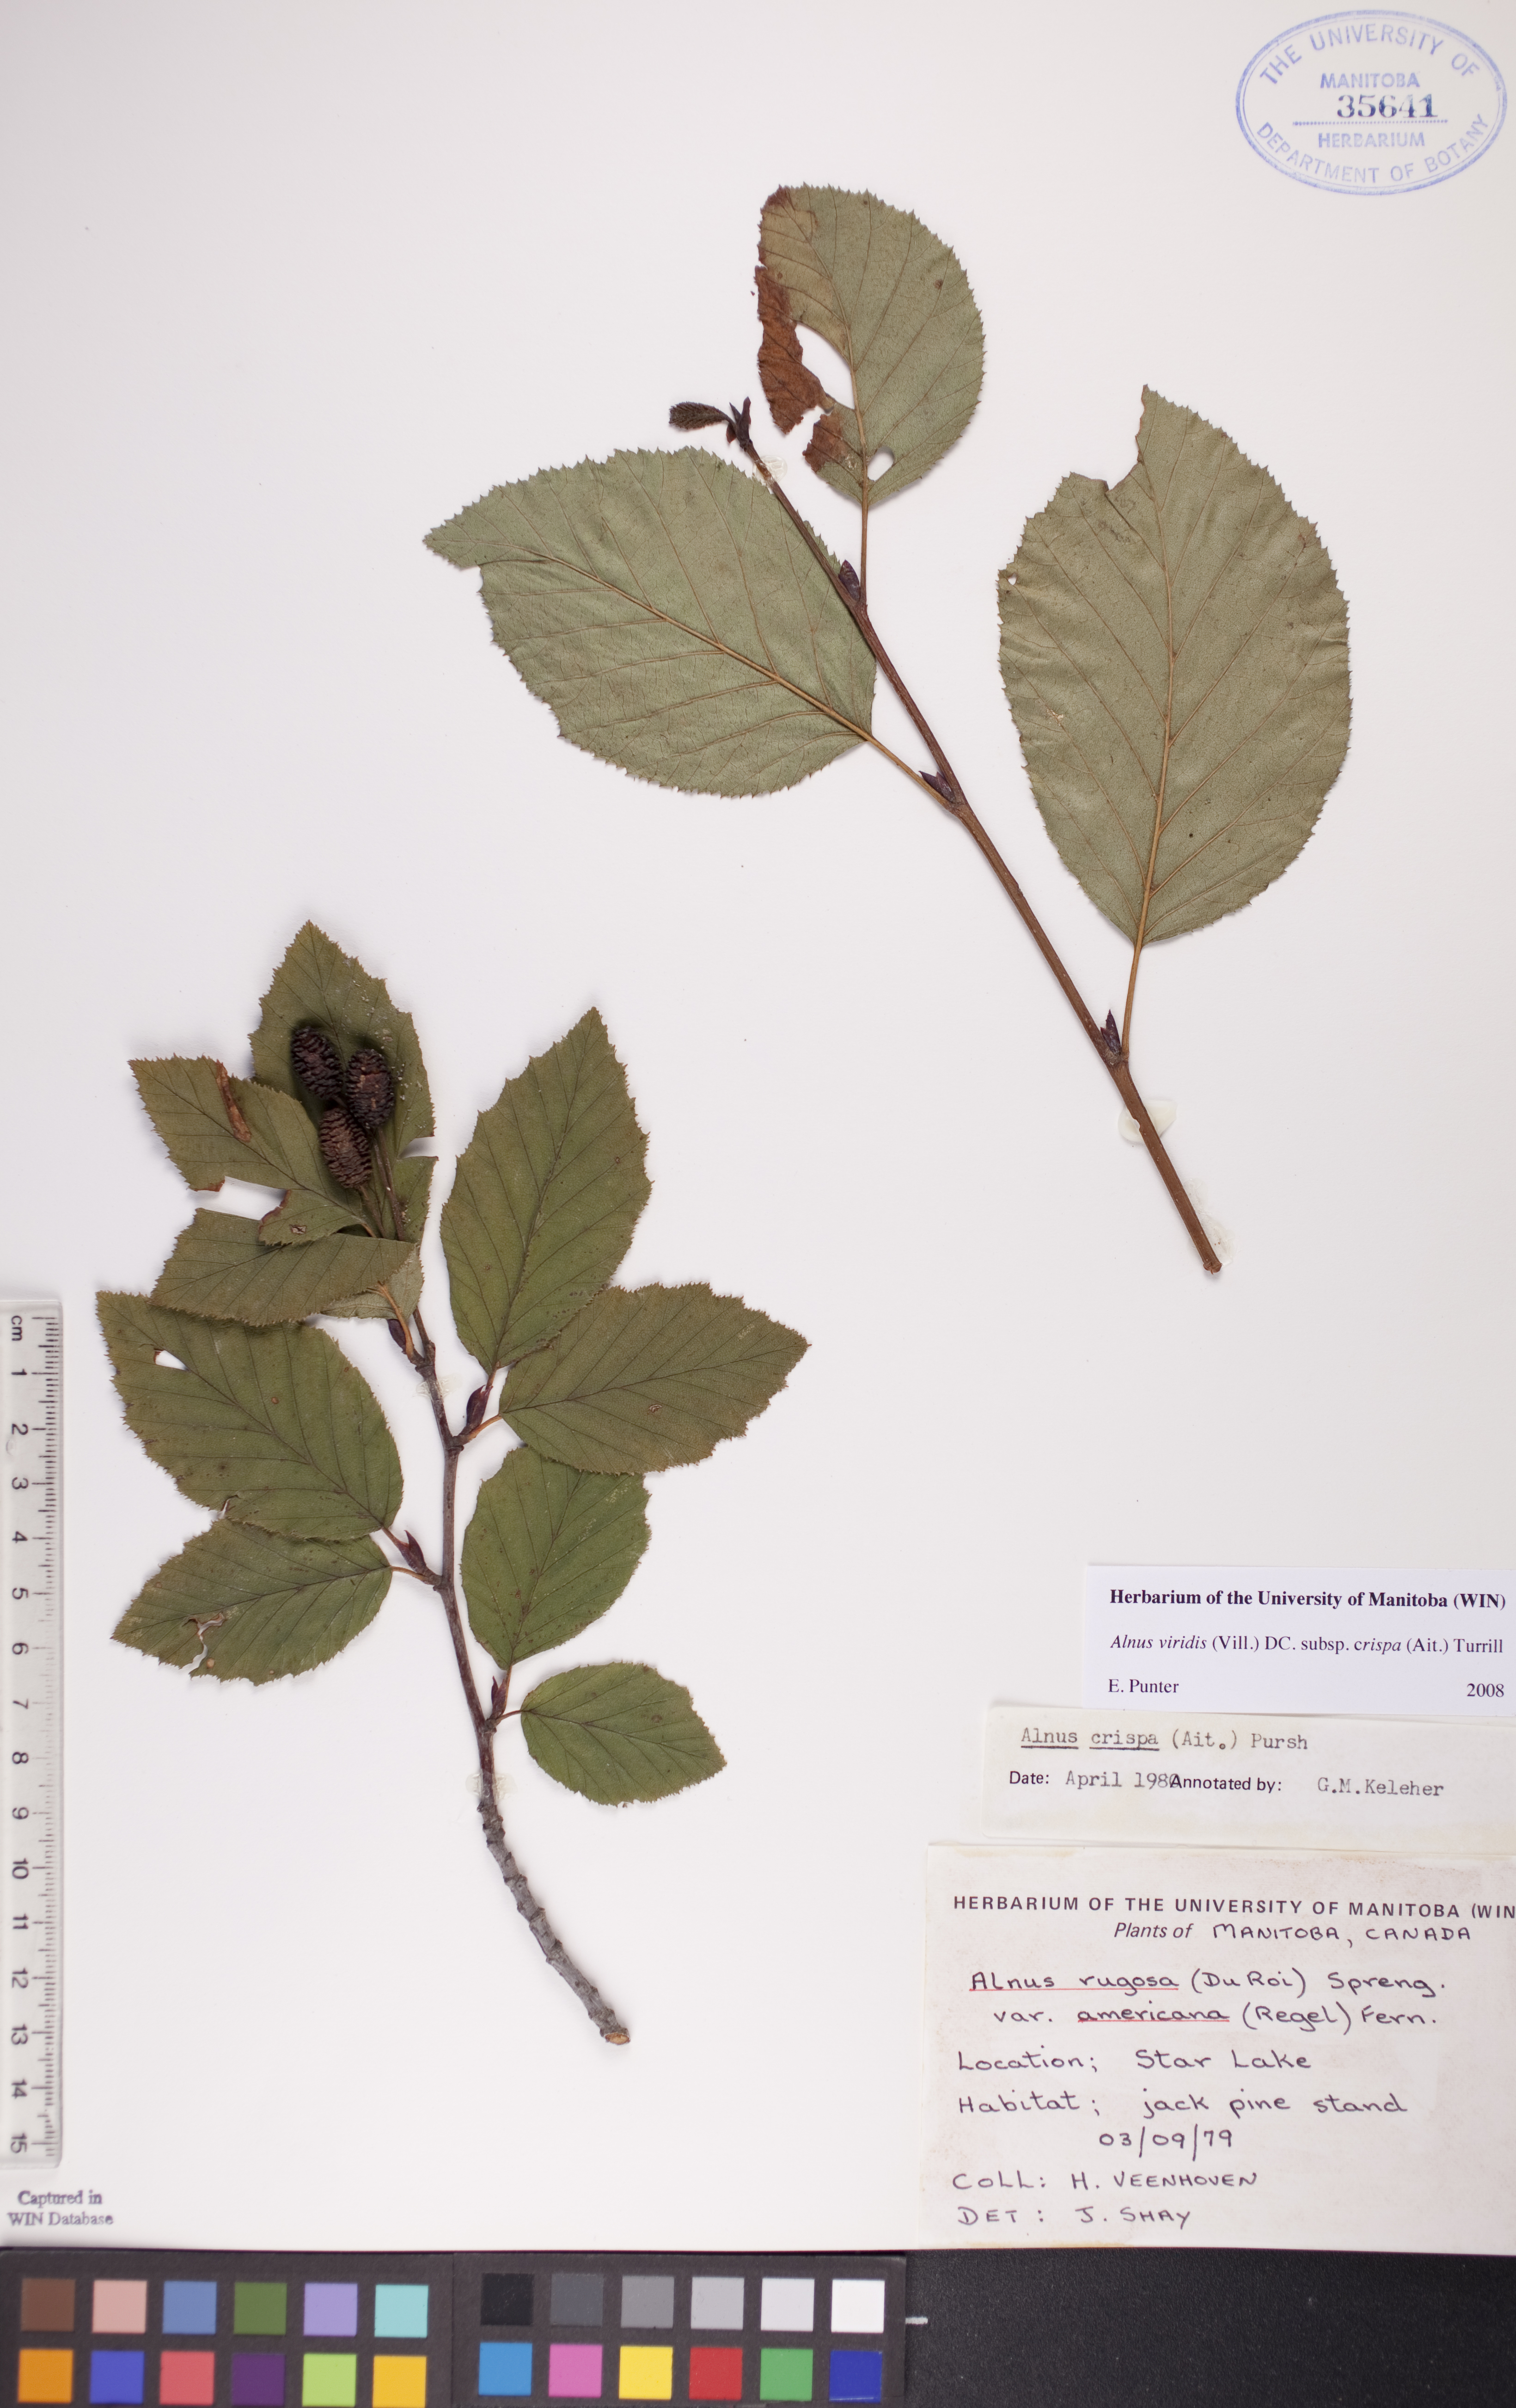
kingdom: Plantae
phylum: Tracheophyta
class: Magnoliopsida
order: Fagales
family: Betulaceae
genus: Alnus
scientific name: Alnus alnobetula
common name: Green alder
